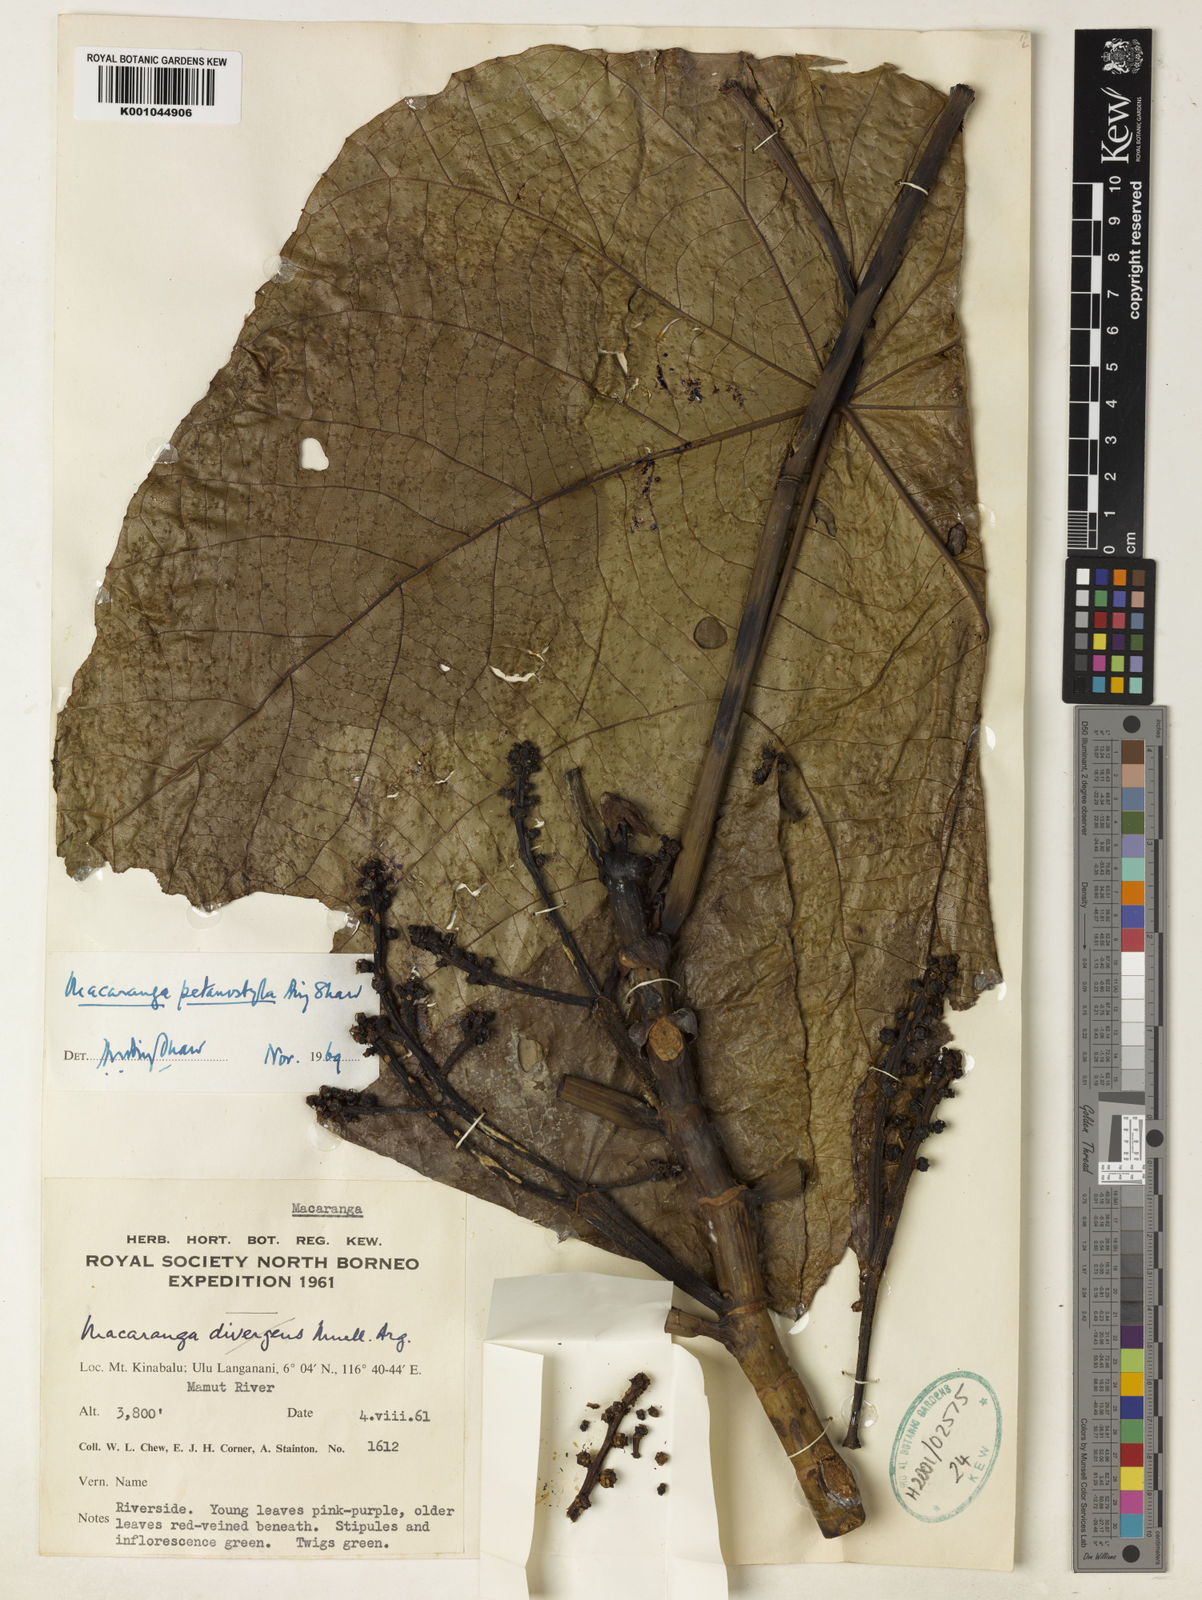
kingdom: Plantae
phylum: Tracheophyta
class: Magnoliopsida
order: Malpighiales
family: Euphorbiaceae
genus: Macaranga
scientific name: Macaranga petanostyla
